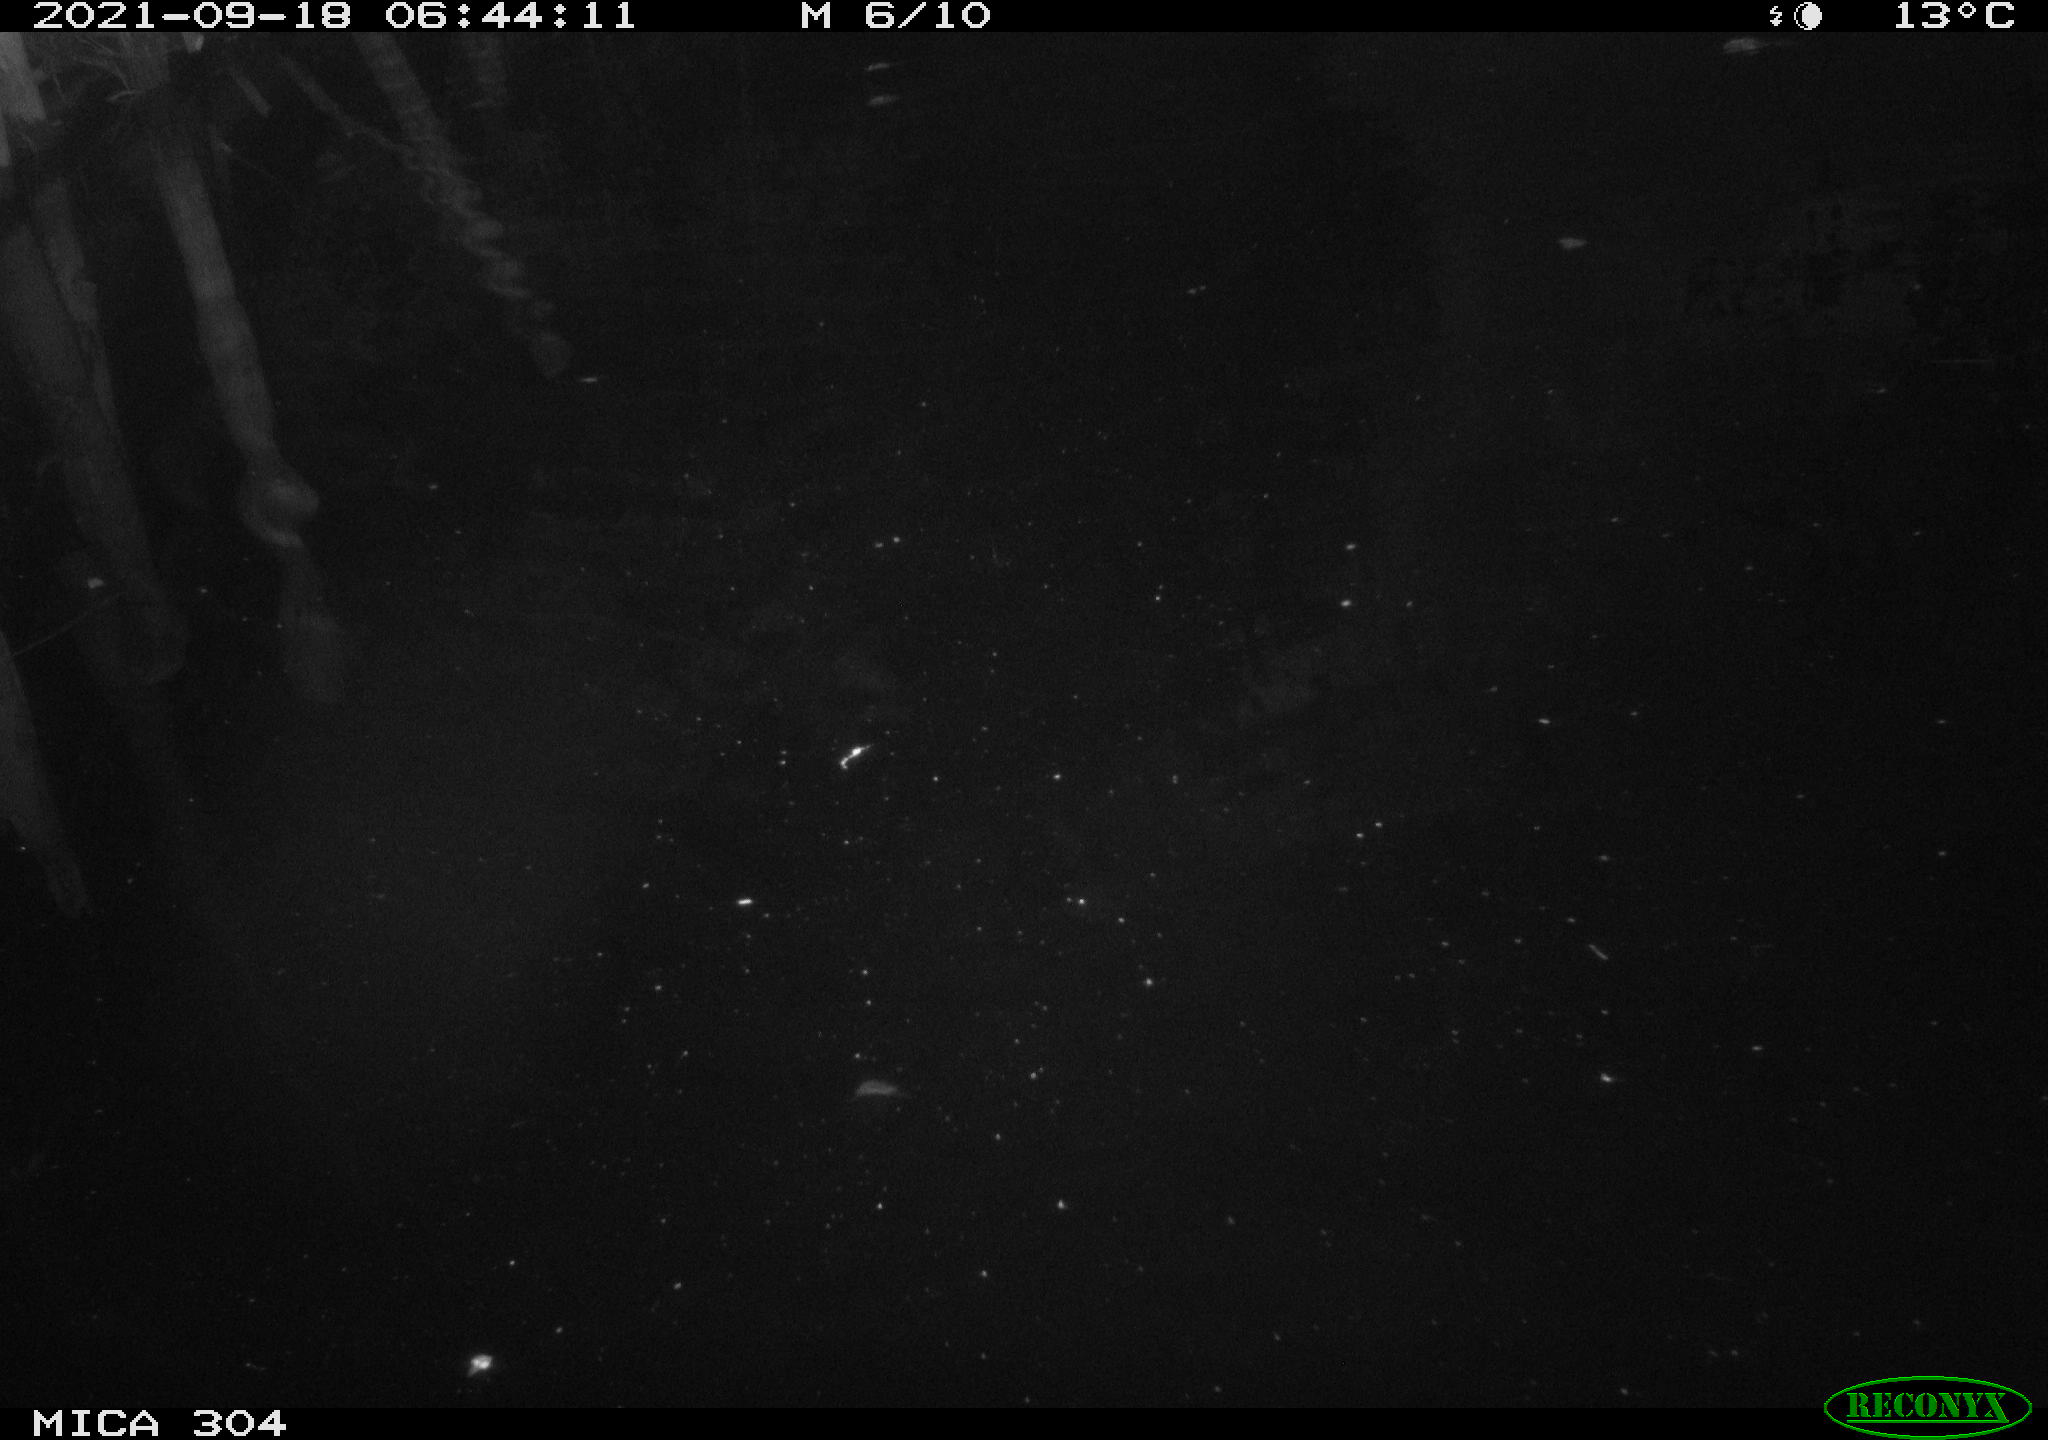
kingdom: Animalia
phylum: Chordata
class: Mammalia
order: Rodentia
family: Cricetidae
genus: Ondatra
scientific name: Ondatra zibethicus
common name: Muskrat
